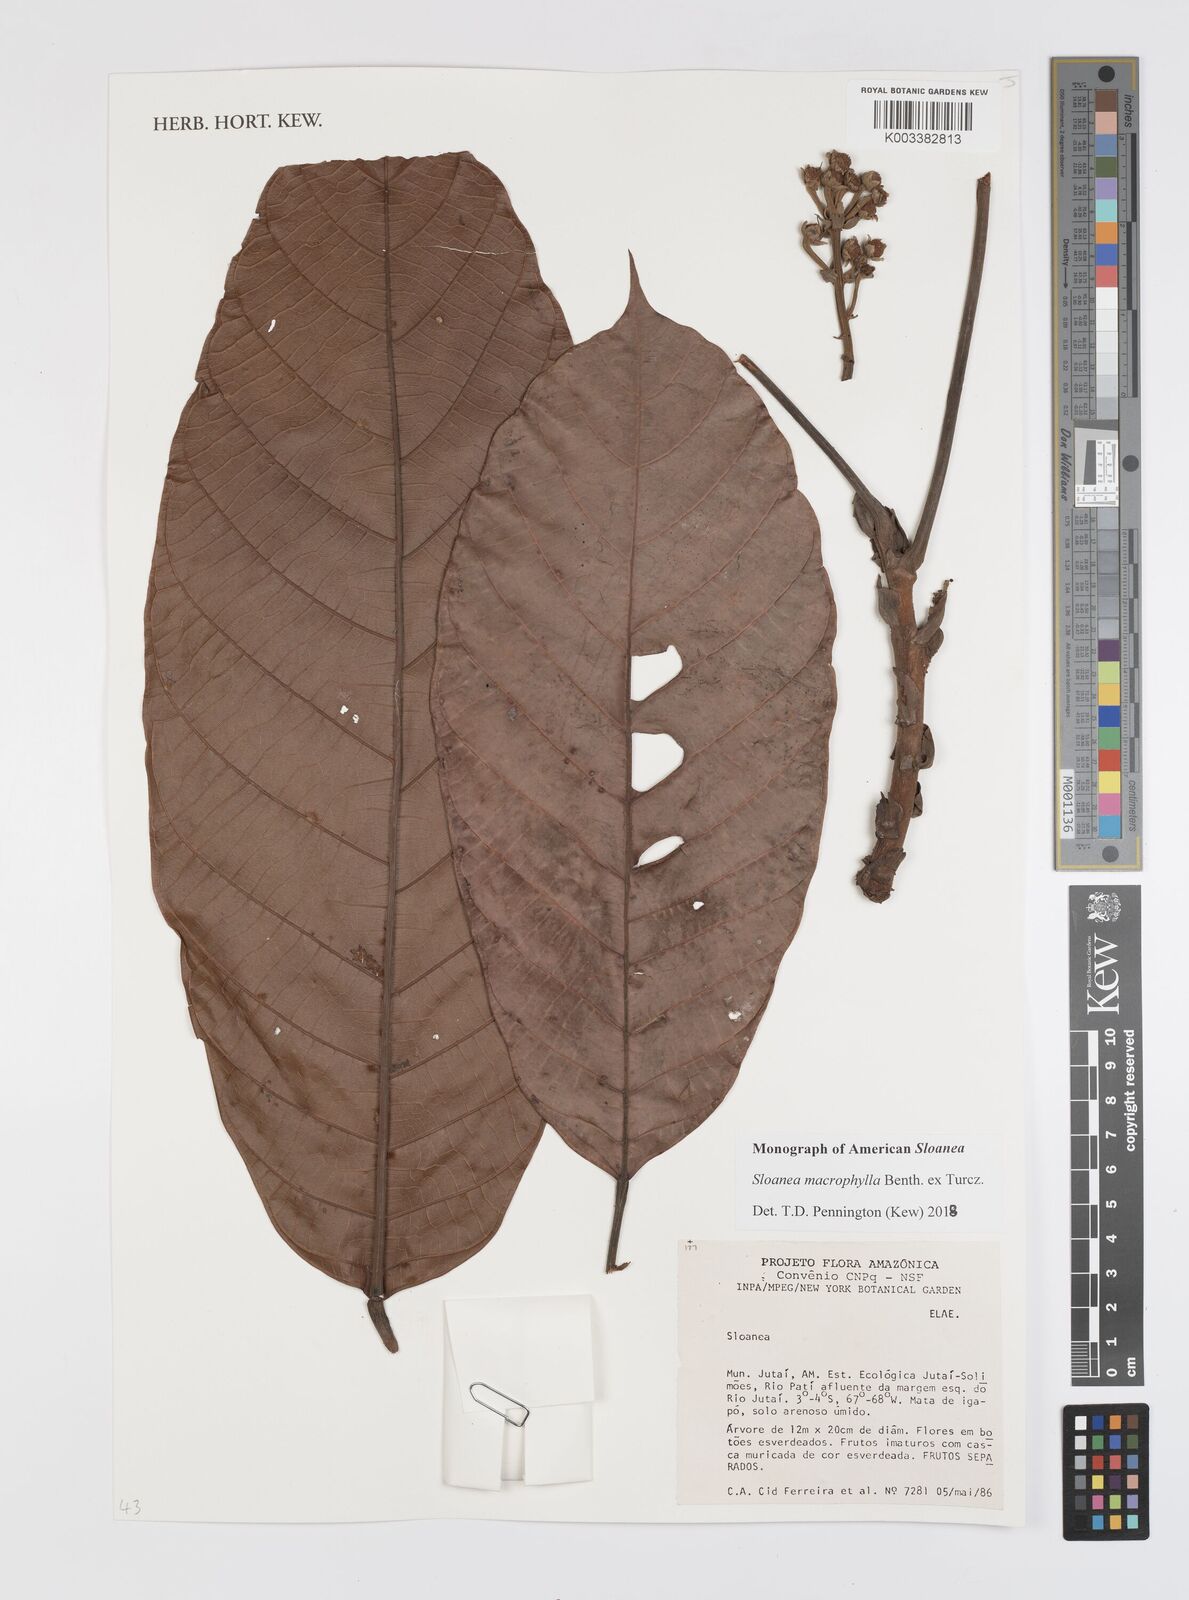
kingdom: Plantae
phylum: Tracheophyta
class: Magnoliopsida
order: Oxalidales
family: Elaeocarpaceae
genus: Sloanea
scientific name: Sloanea macrophylla
